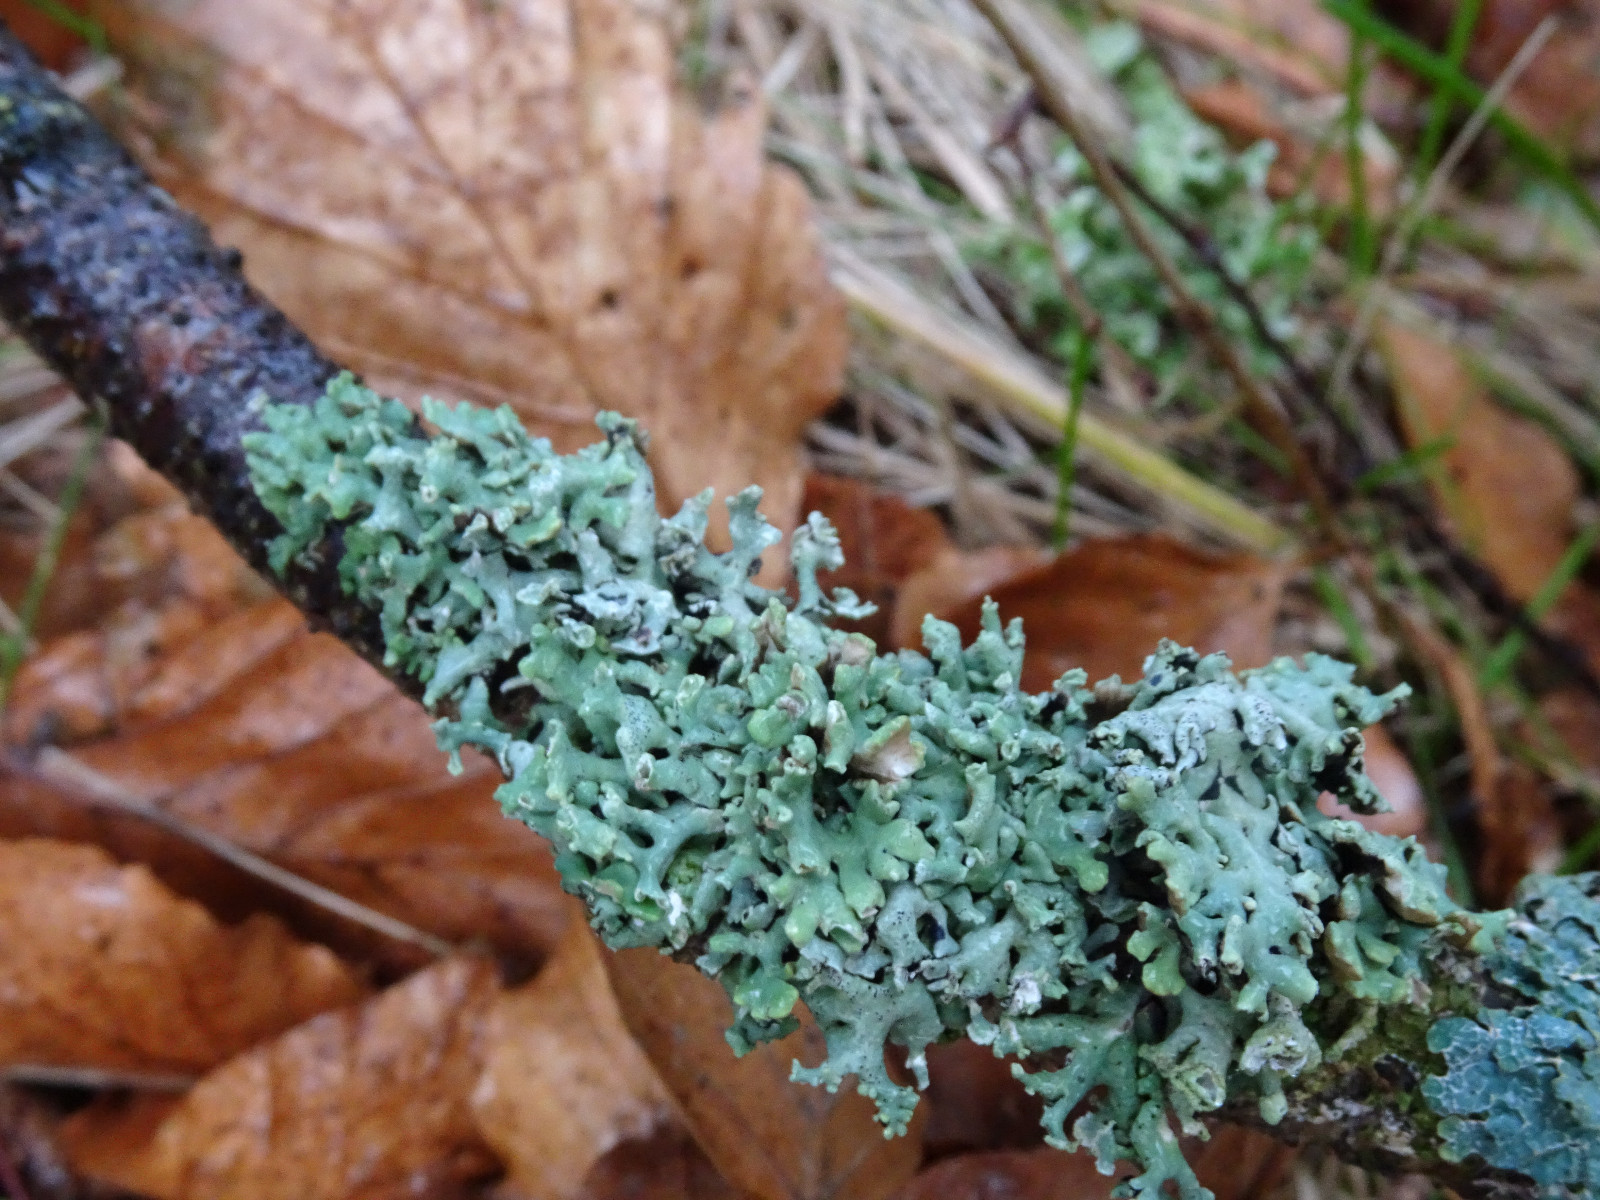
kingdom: Fungi
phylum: Ascomycota
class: Lecanoromycetes
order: Lecanorales
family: Parmeliaceae
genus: Hypogymnia
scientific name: Hypogymnia tubulosa
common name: finger-kvistlav
